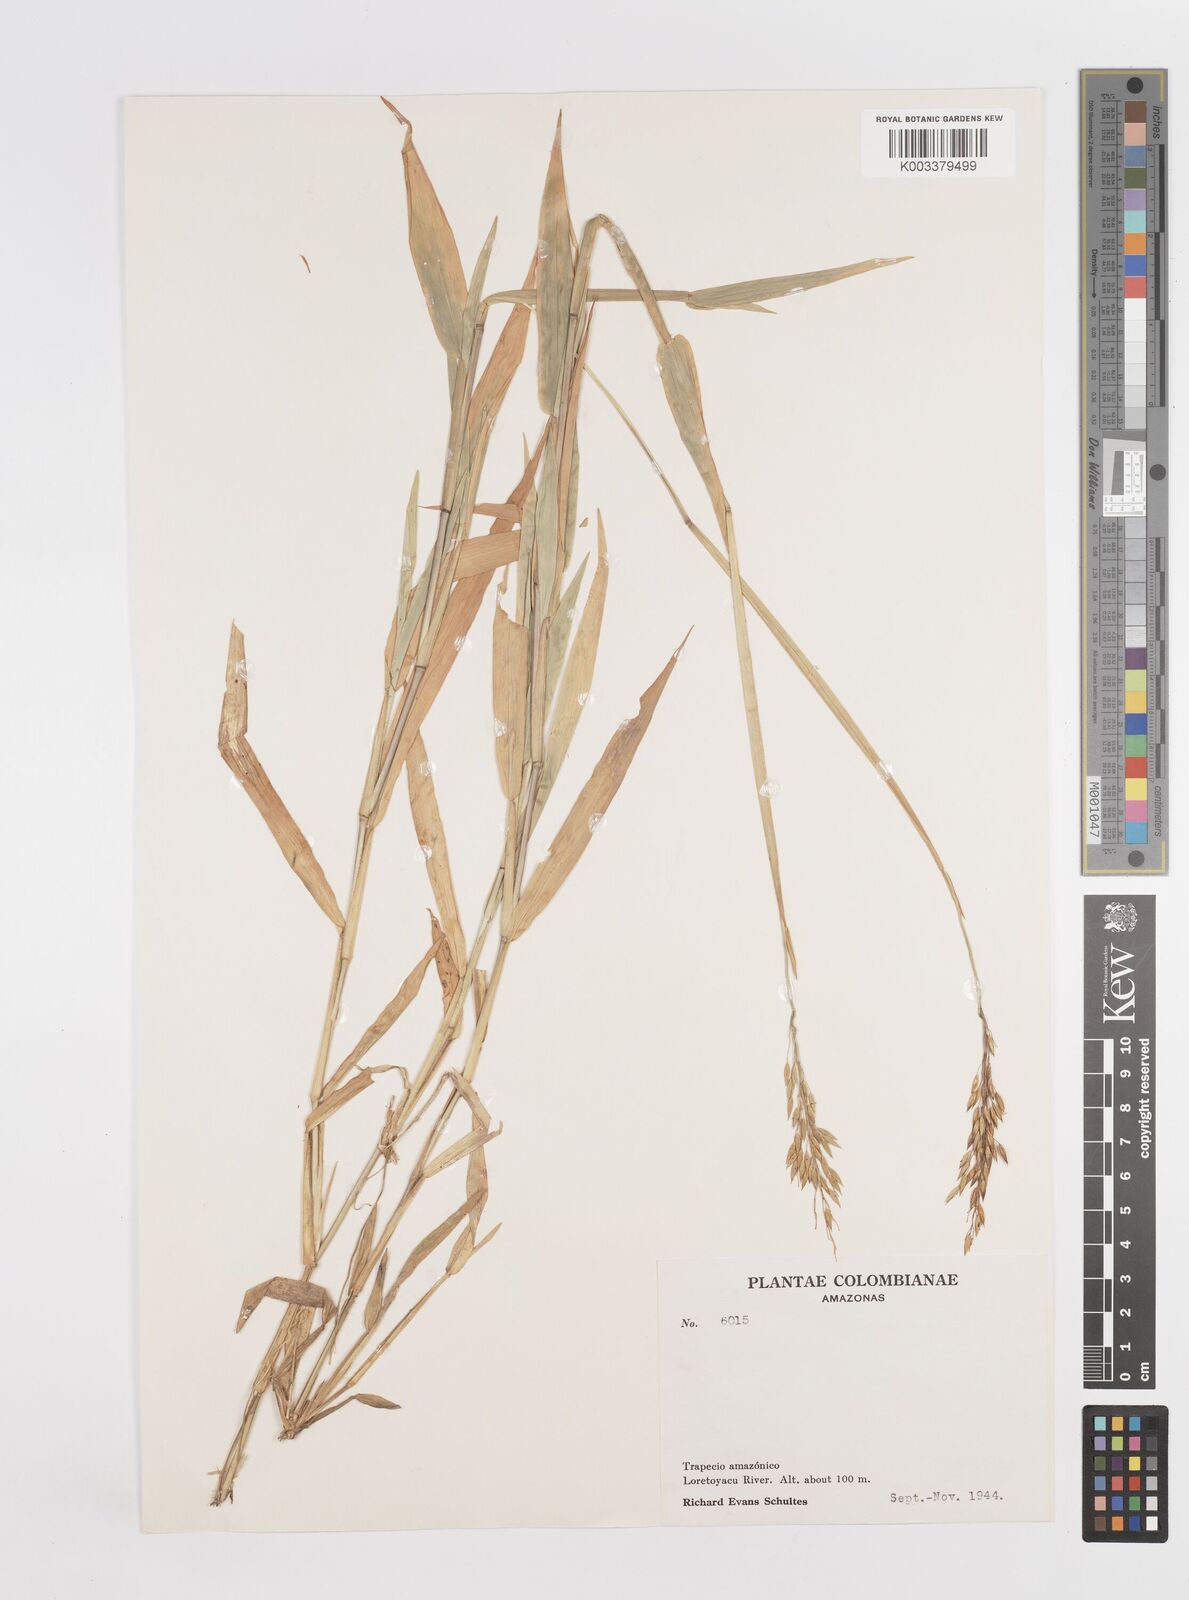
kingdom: Plantae
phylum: Tracheophyta
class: Liliopsida
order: Poales
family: Poaceae
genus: Homolepis
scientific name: Homolepis aturensis
